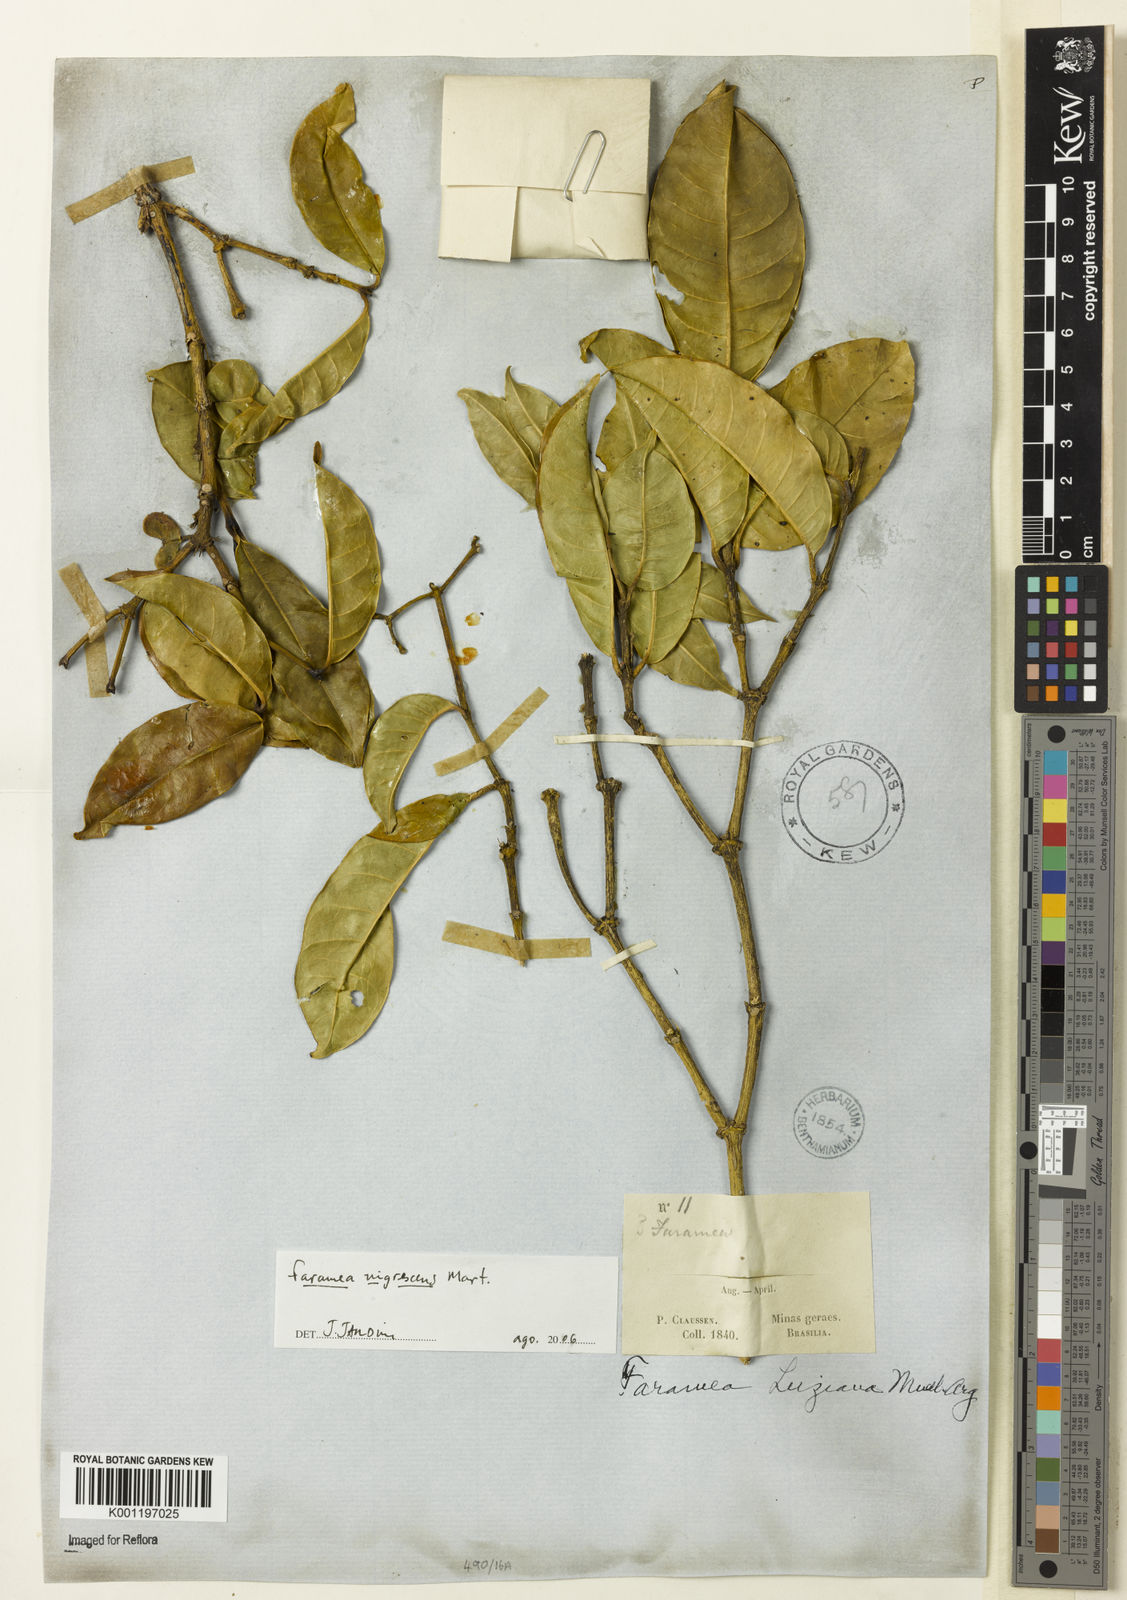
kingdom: Plantae
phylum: Tracheophyta
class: Magnoliopsida
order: Gentianales
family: Rubiaceae
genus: Faramea
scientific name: Faramea nigrescens
